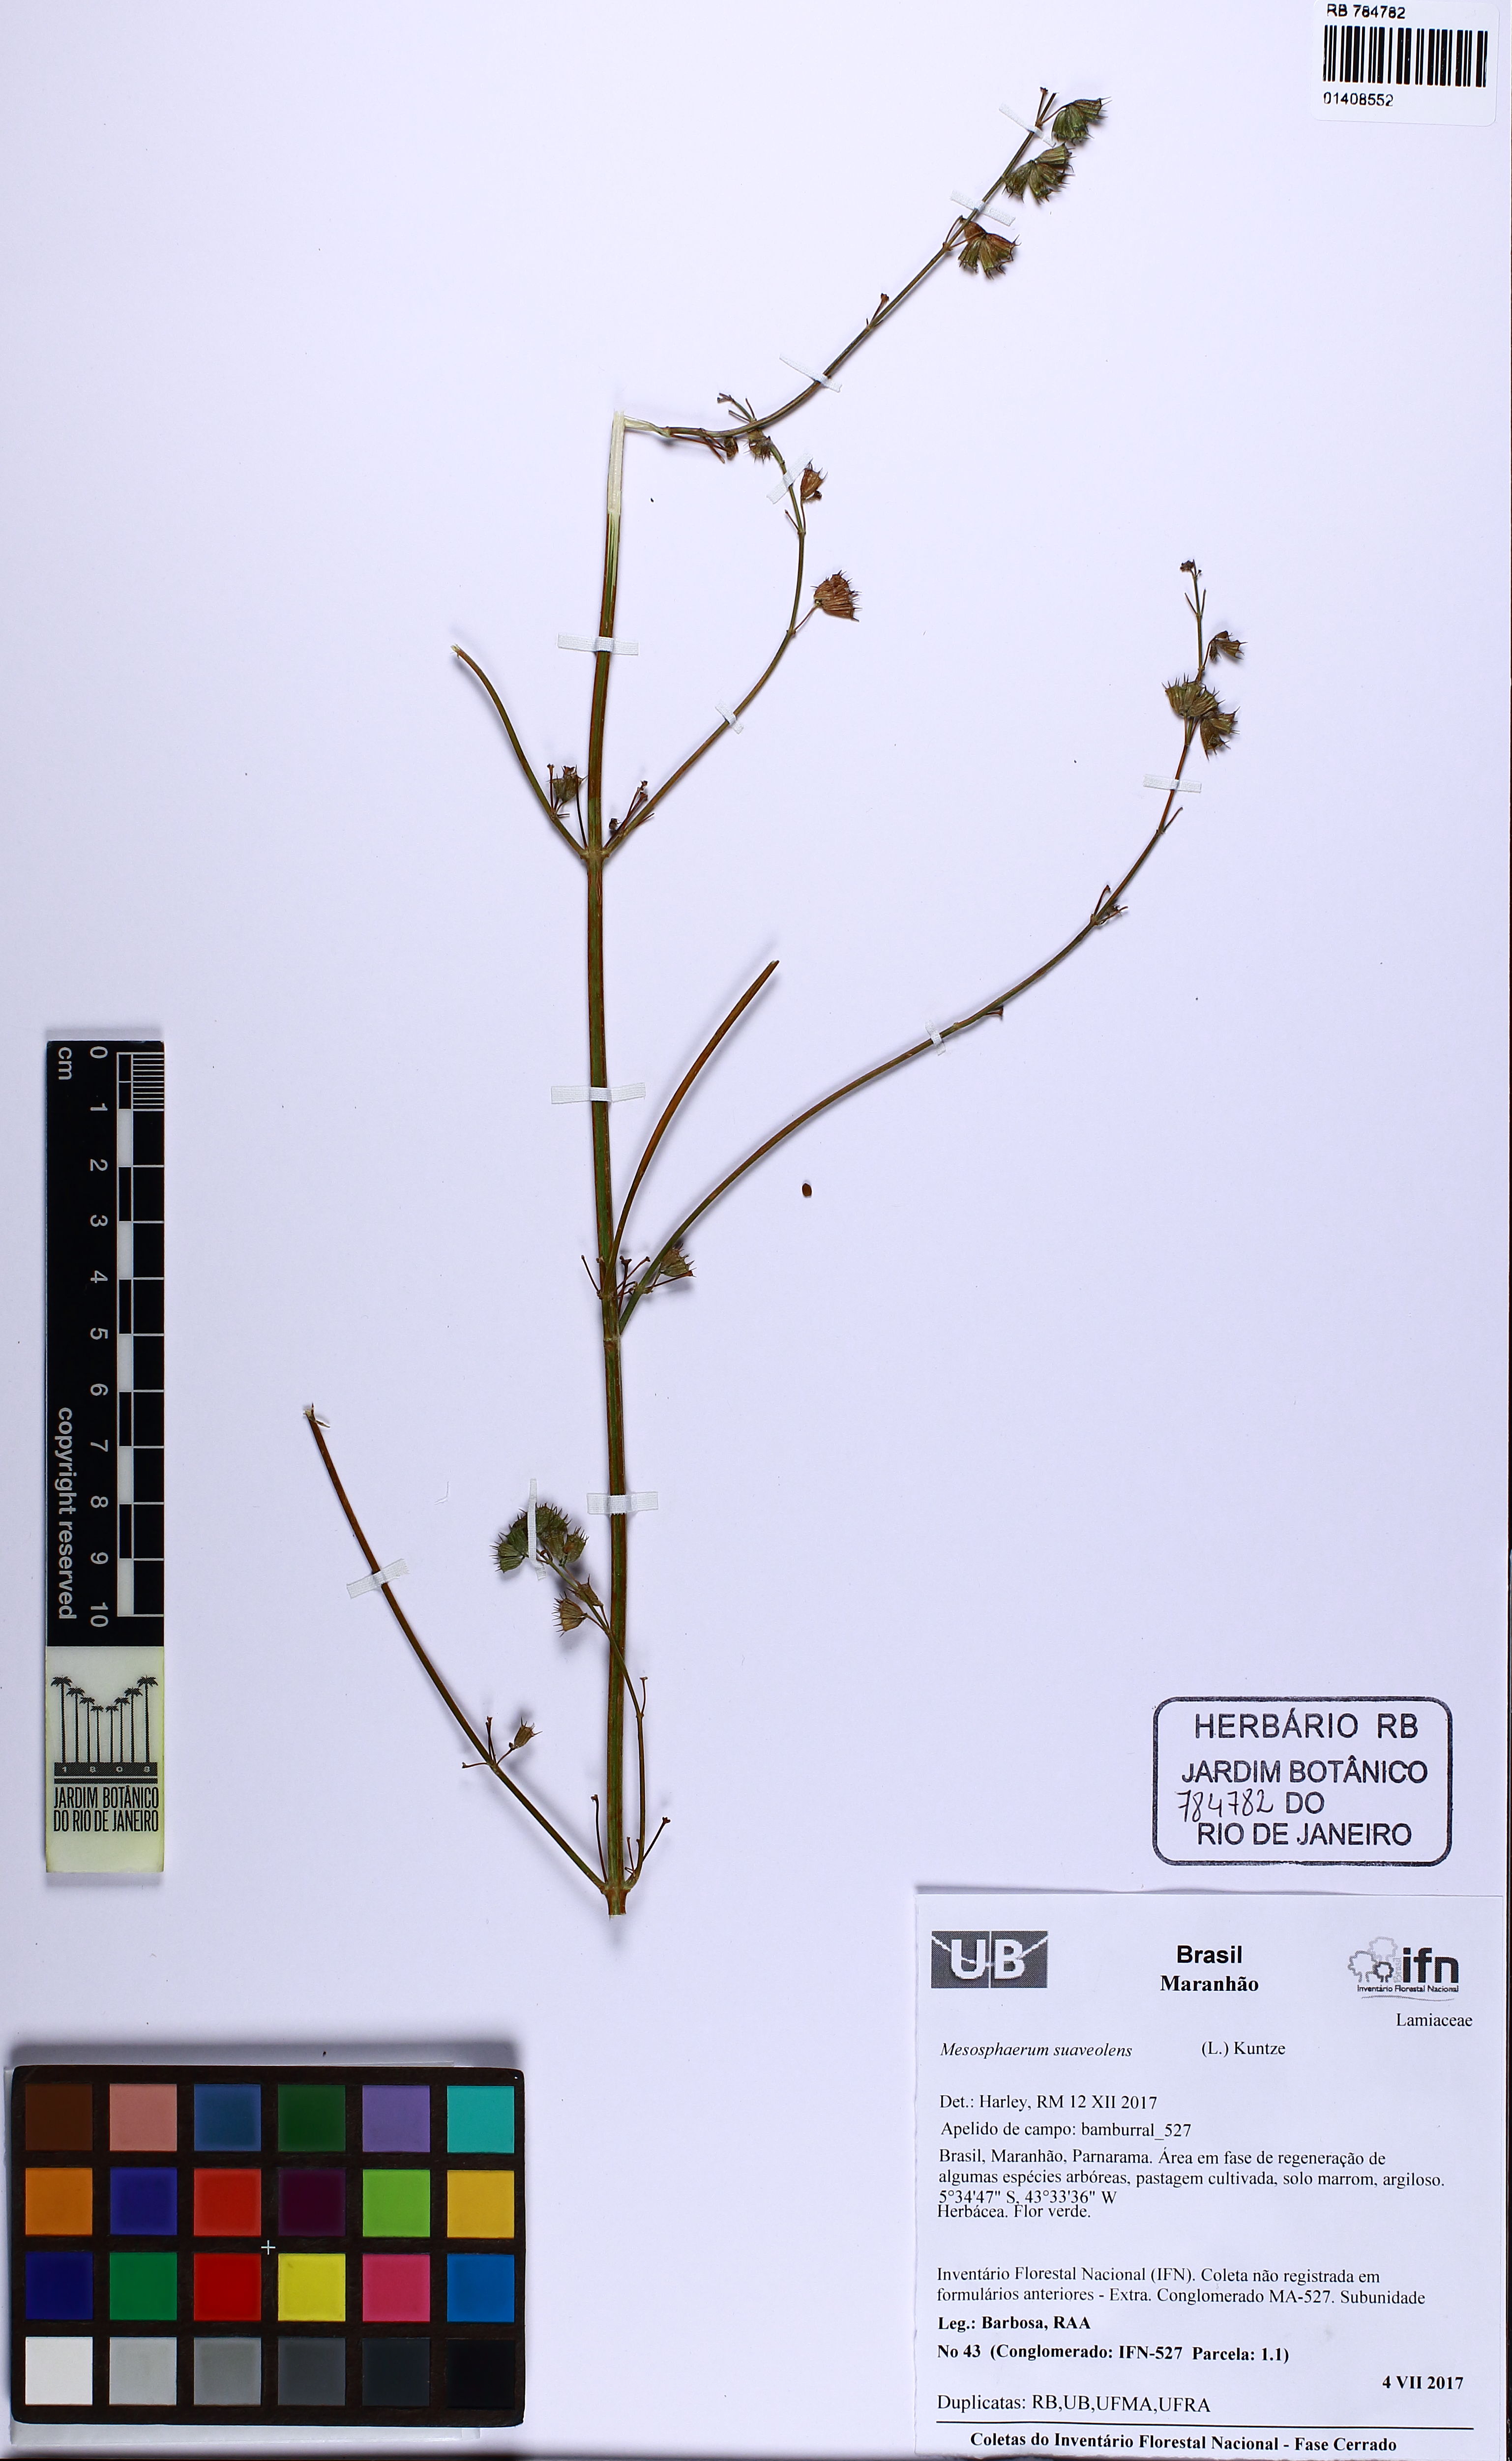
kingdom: Plantae
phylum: Tracheophyta
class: Magnoliopsida
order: Lamiales
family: Lamiaceae
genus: Mesosphaerum
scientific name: Mesosphaerum suaveolens
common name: Pignut
